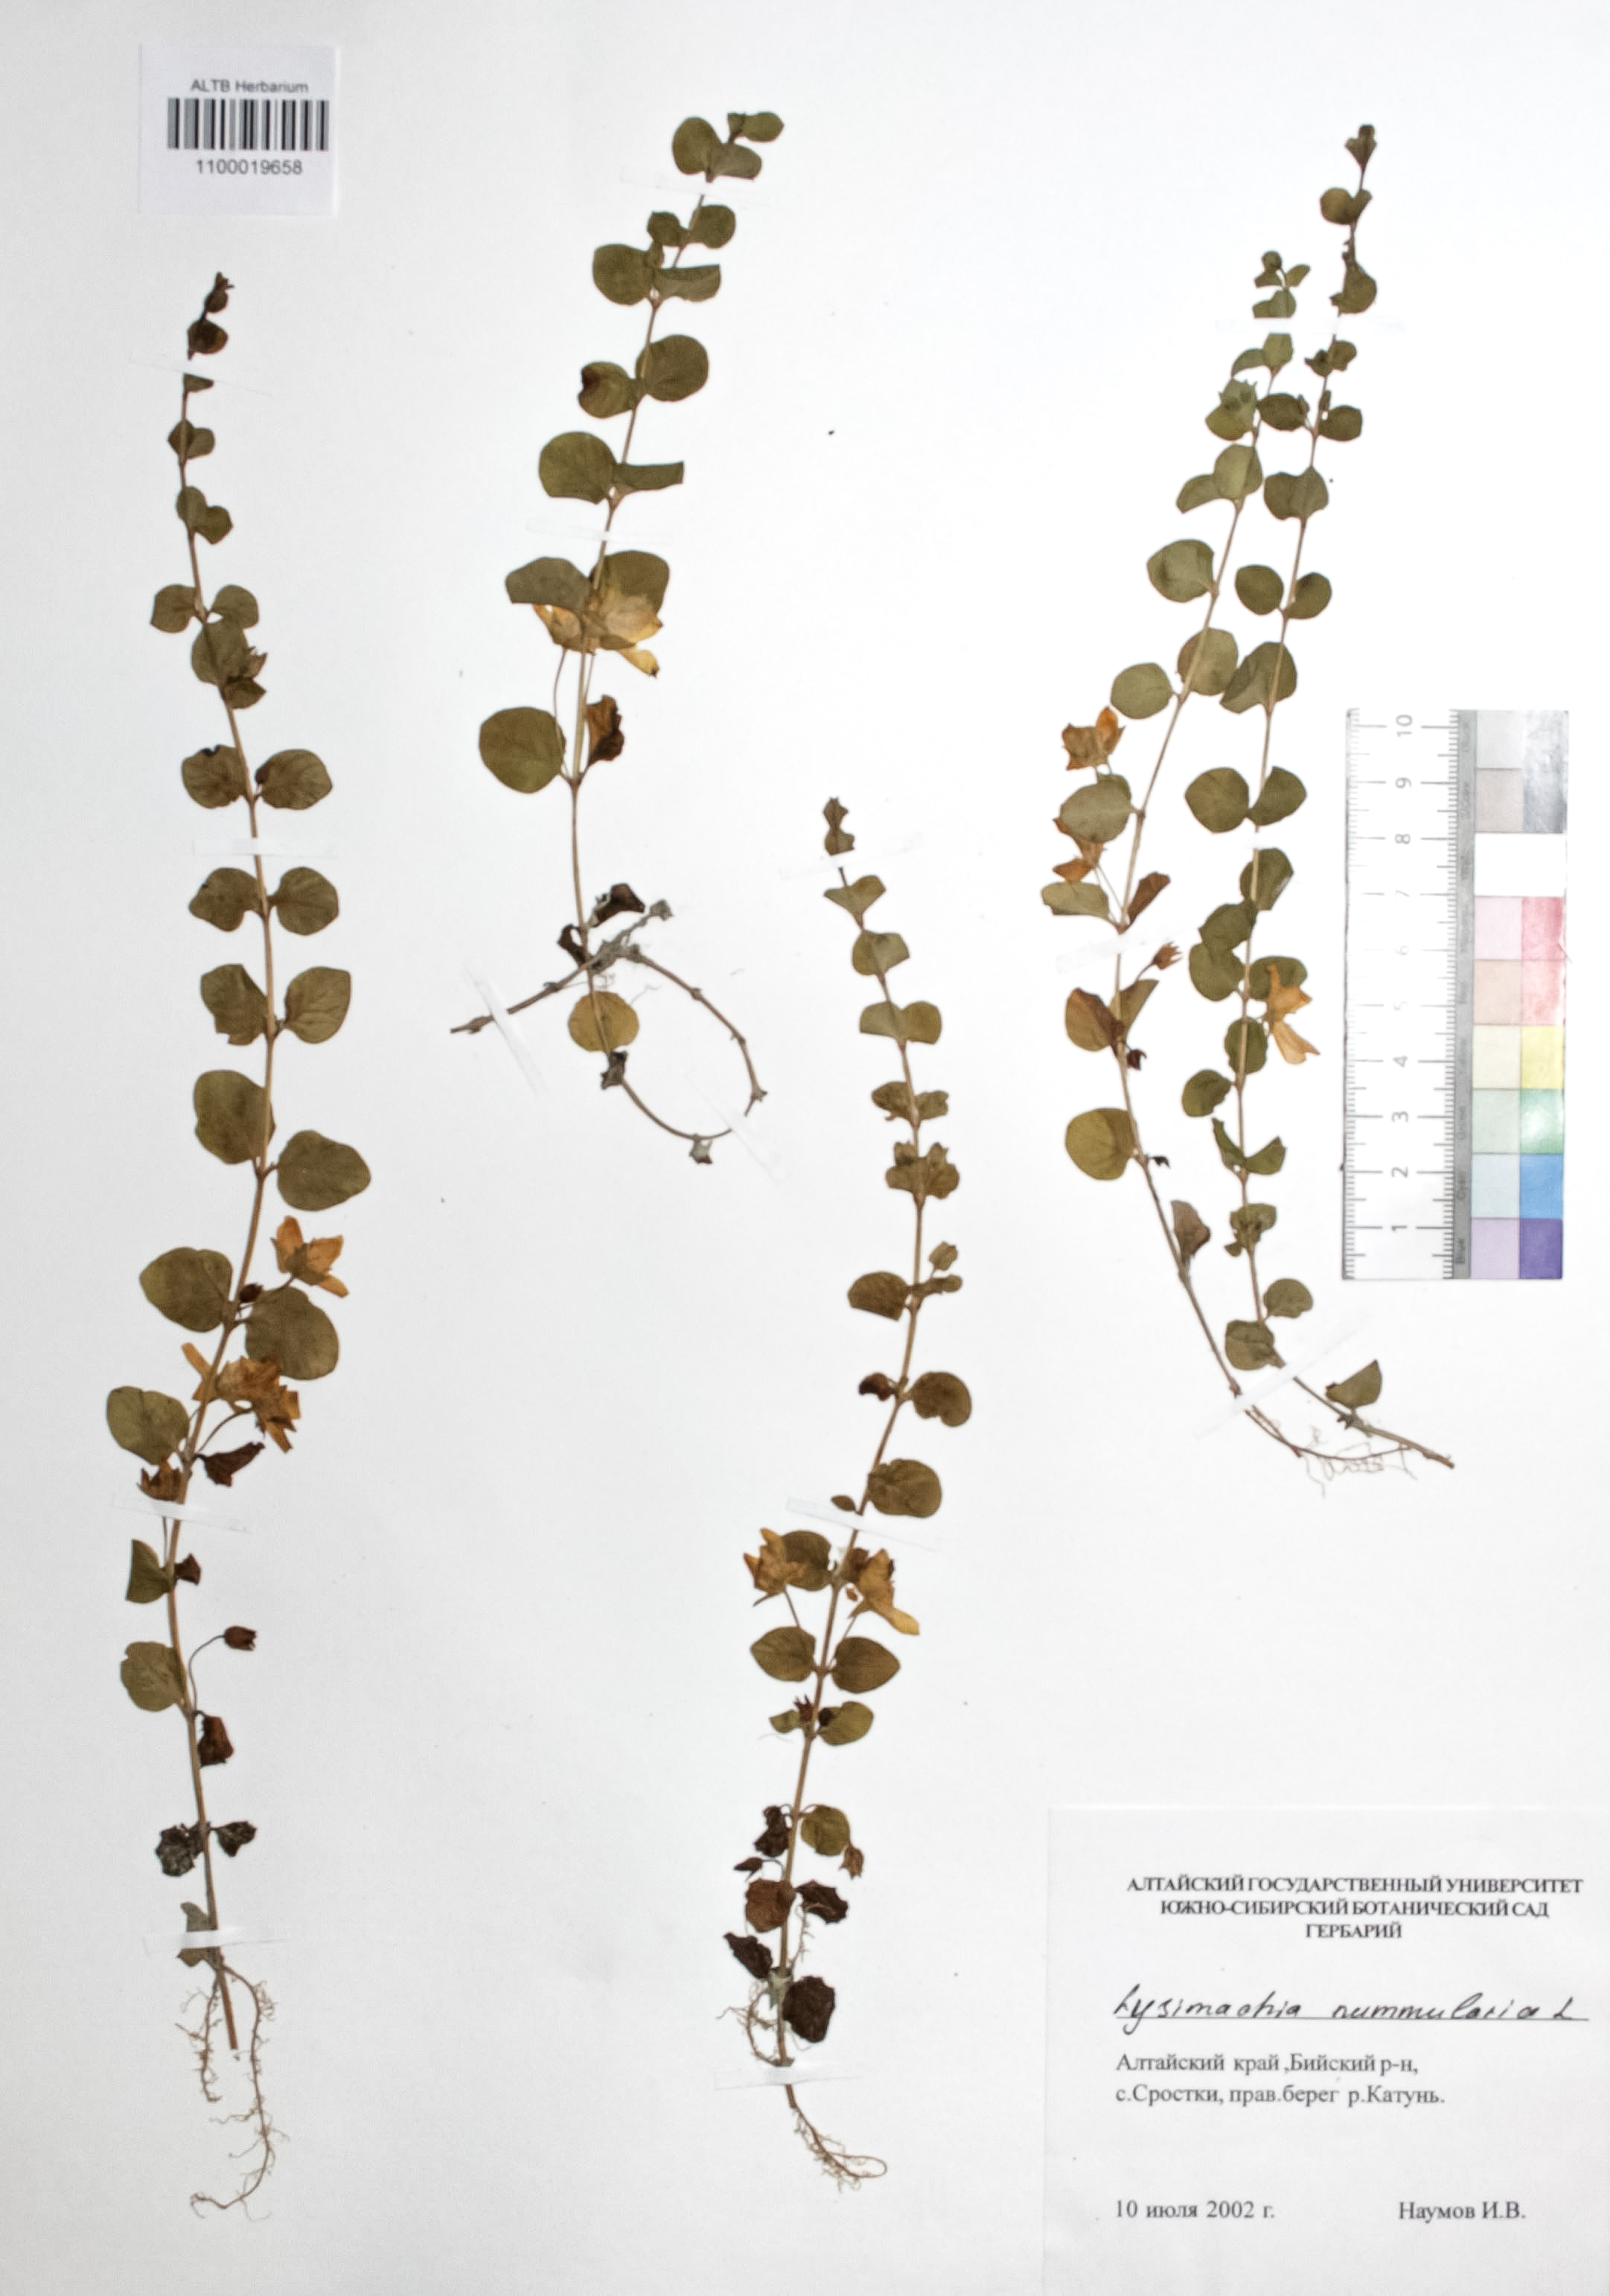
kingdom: Plantae
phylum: Tracheophyta
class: Magnoliopsida
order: Ericales
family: Primulaceae
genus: Lysimachia
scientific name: Lysimachia nummularia
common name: Moneywort
